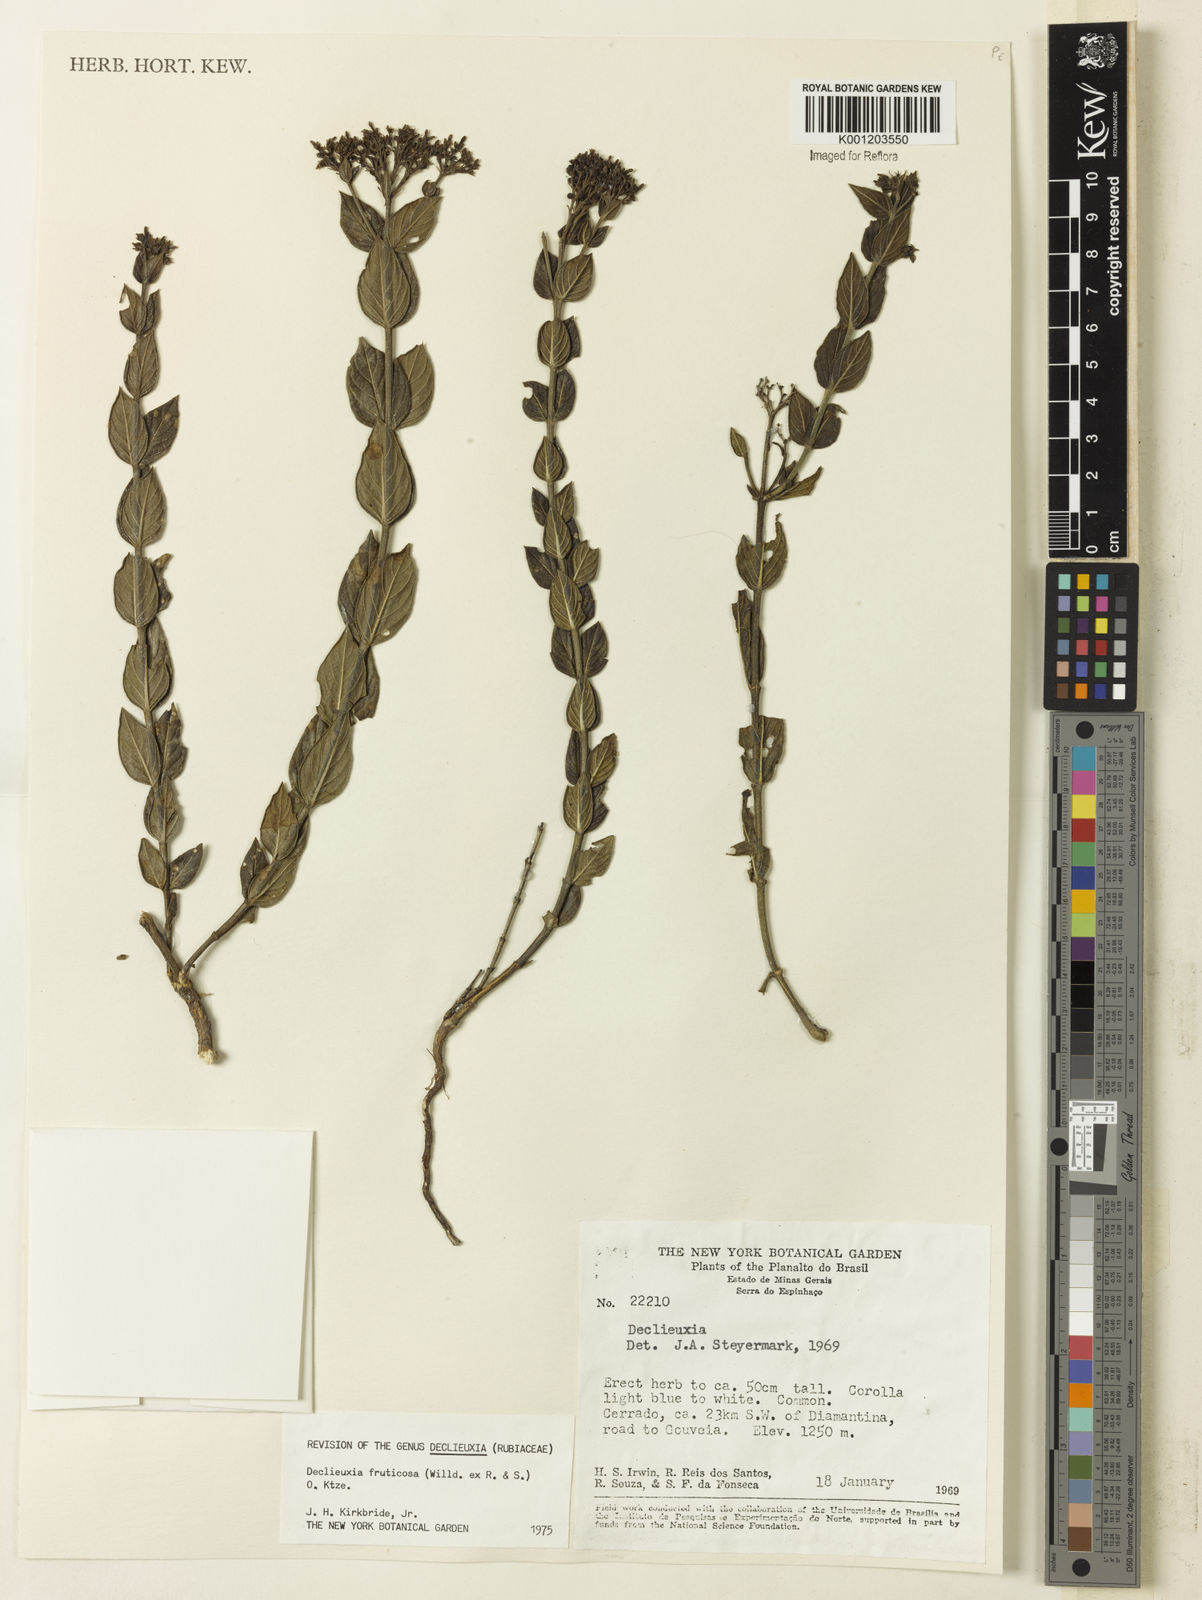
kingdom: Plantae
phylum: Tracheophyta
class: Magnoliopsida
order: Gentianales
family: Rubiaceae
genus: Declieuxia
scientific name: Declieuxia fruticosa
